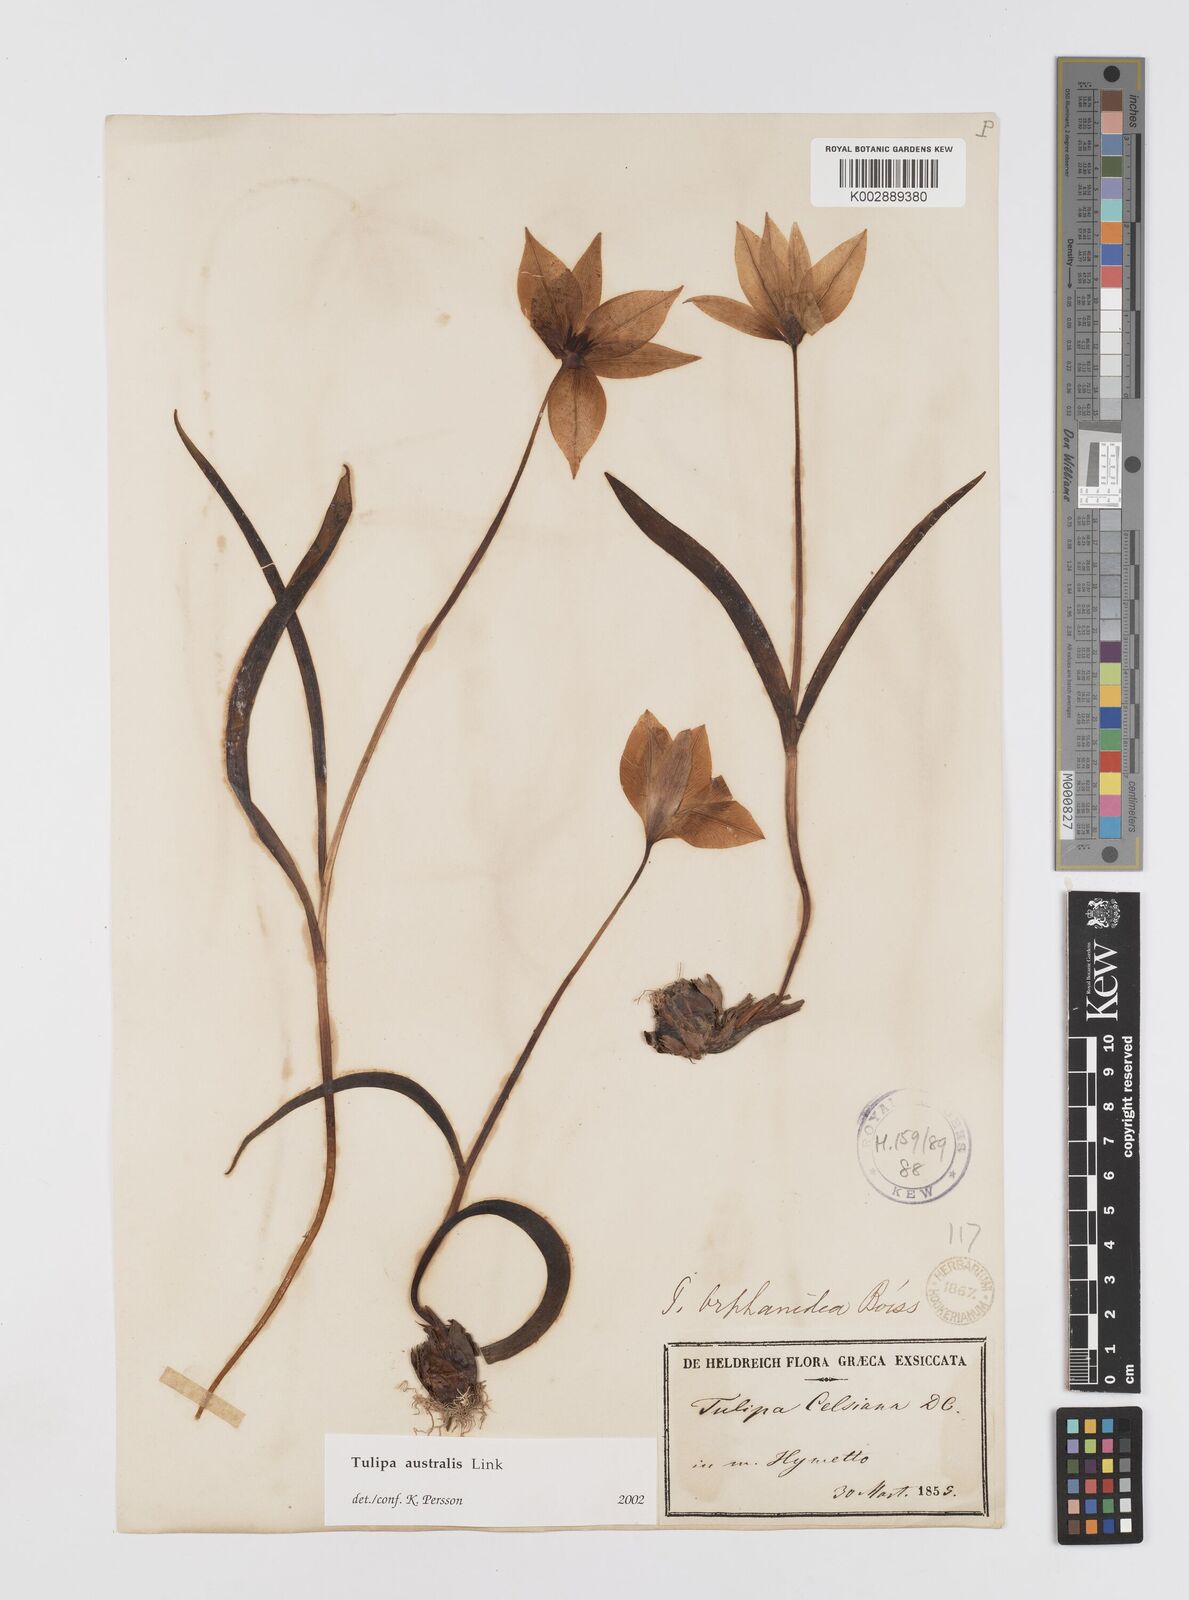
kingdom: Plantae
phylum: Tracheophyta
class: Liliopsida
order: Liliales
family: Liliaceae
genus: Tulipa
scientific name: Tulipa sylvestris
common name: Wild tulip
